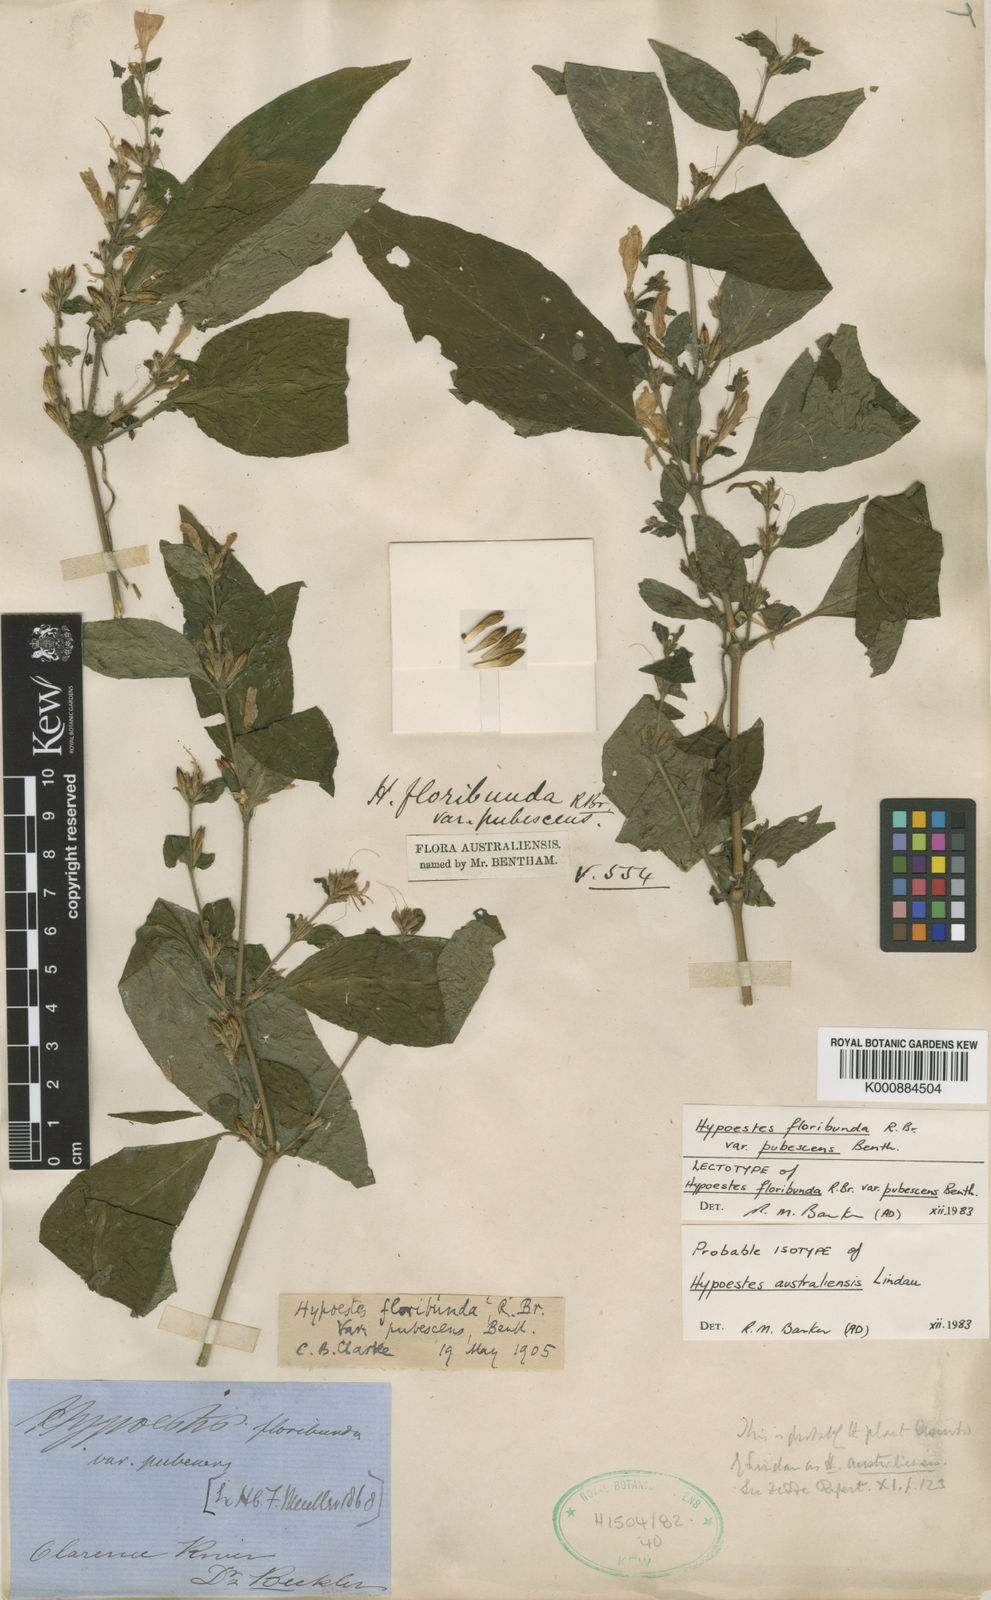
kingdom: Plantae
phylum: Tracheophyta
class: Magnoliopsida
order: Lamiales
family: Acanthaceae
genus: Hypoestes
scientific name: Hypoestes floribunda
